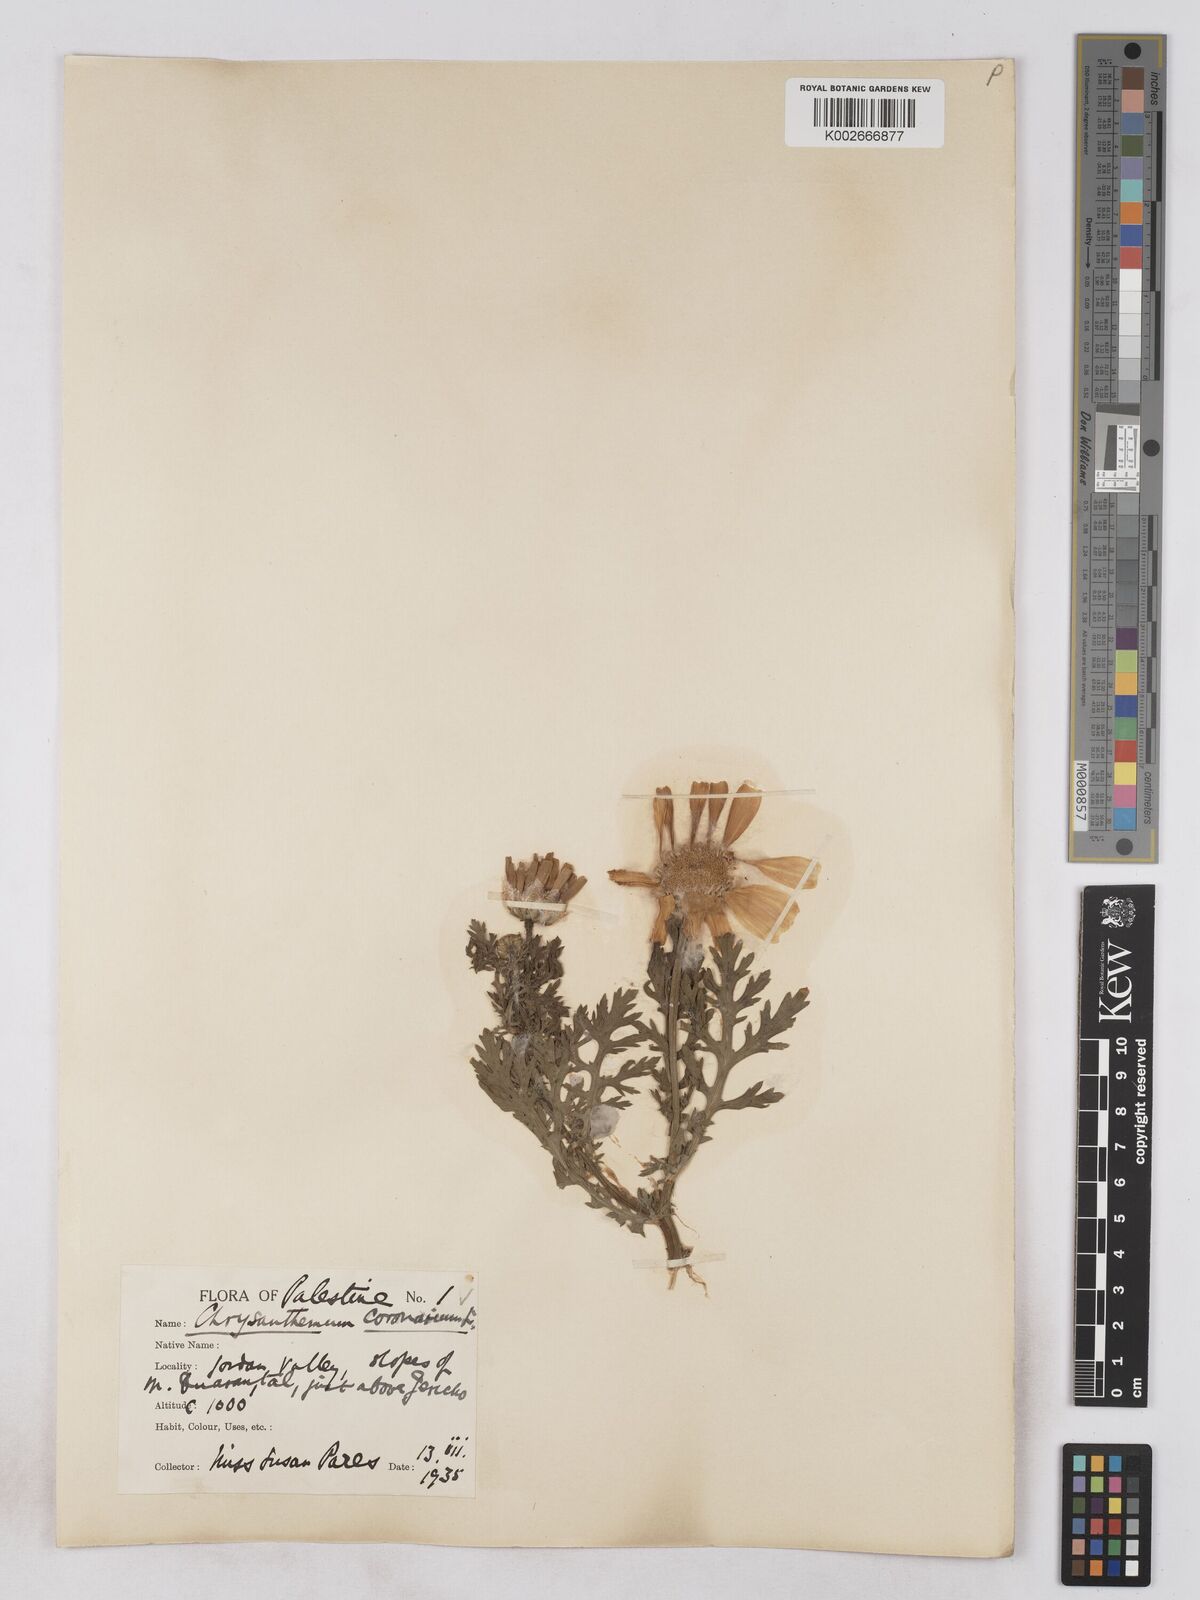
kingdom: Plantae
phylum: Tracheophyta
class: Magnoliopsida
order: Asterales
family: Asteraceae
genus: Glebionis
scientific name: Glebionis coronaria
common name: Crowndaisy
